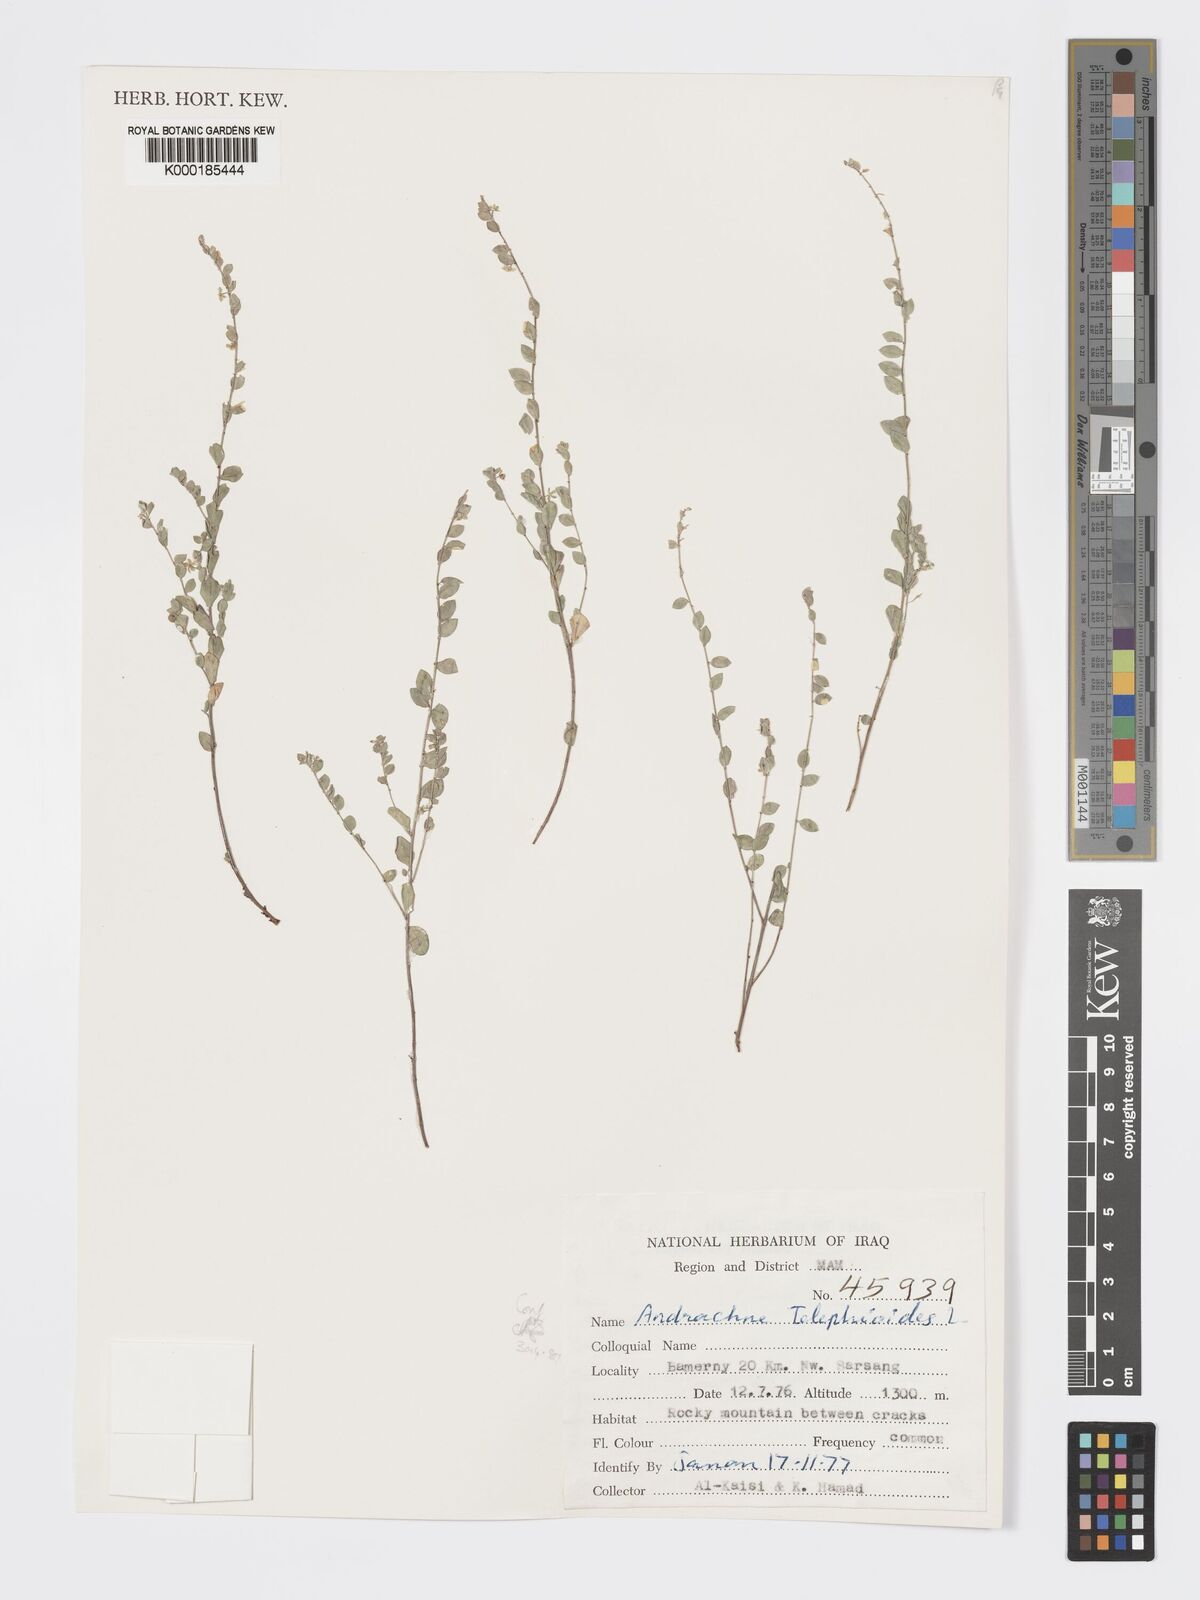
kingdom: Plantae
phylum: Tracheophyta
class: Magnoliopsida
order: Malpighiales
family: Phyllanthaceae
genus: Andrachne
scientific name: Andrachne telephioides
